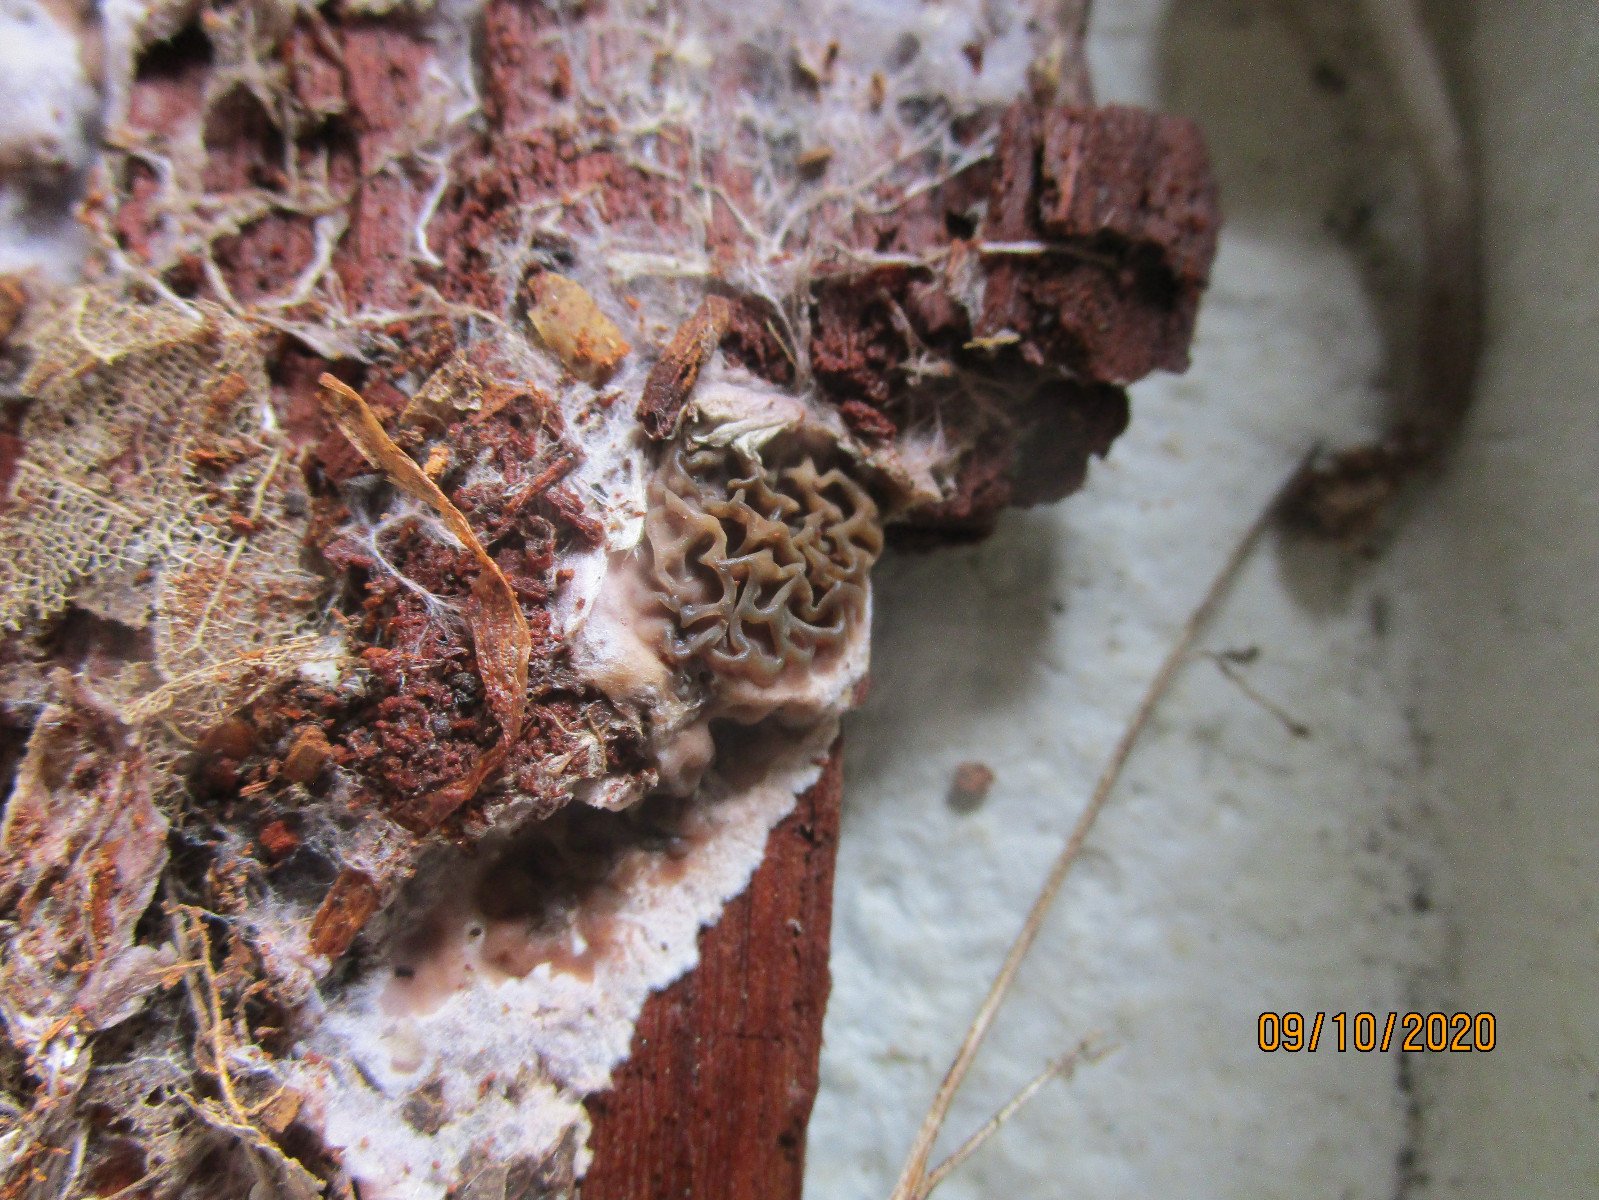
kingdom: Fungi
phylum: Basidiomycota
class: Agaricomycetes
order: Boletales
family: Serpulaceae
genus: Serpula
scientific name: Serpula himantioides
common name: tyndkødet hussvamp
